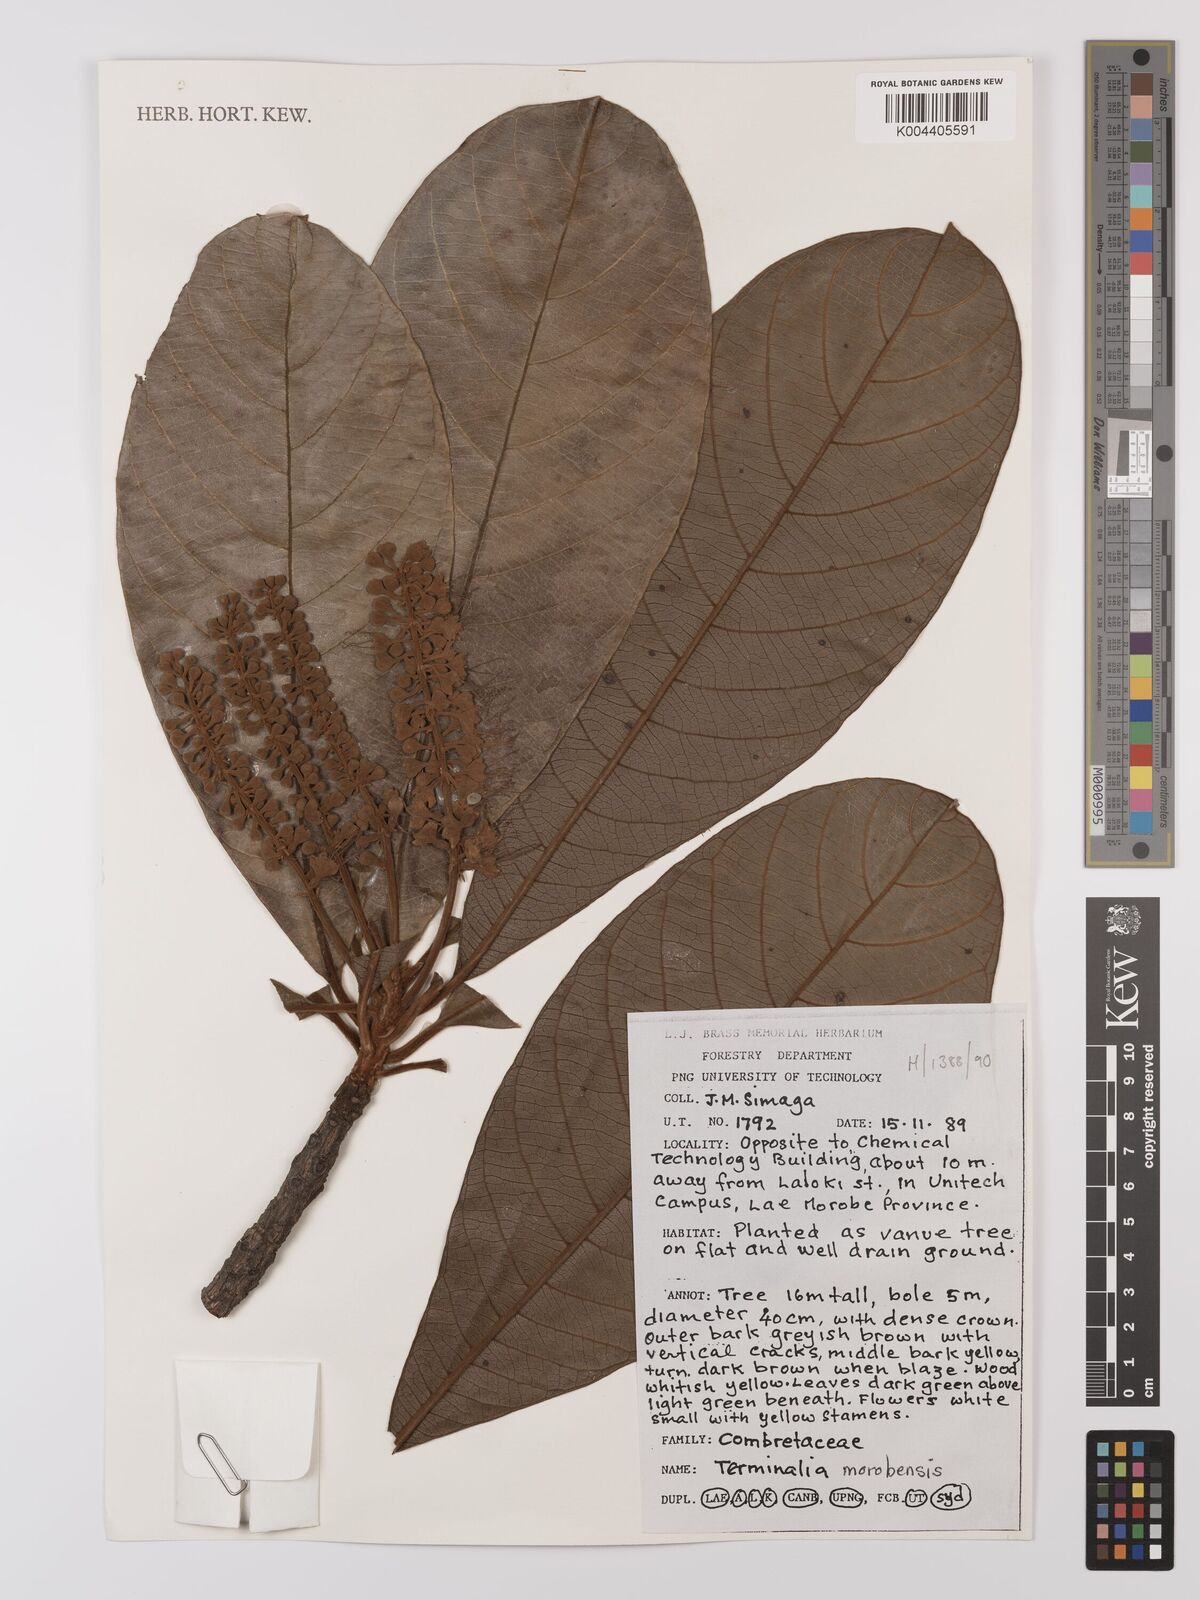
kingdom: Plantae
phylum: Tracheophyta
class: Magnoliopsida
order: Myrtales
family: Combretaceae
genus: Terminalia
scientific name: Terminalia kaernbachii
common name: Okari-nut
